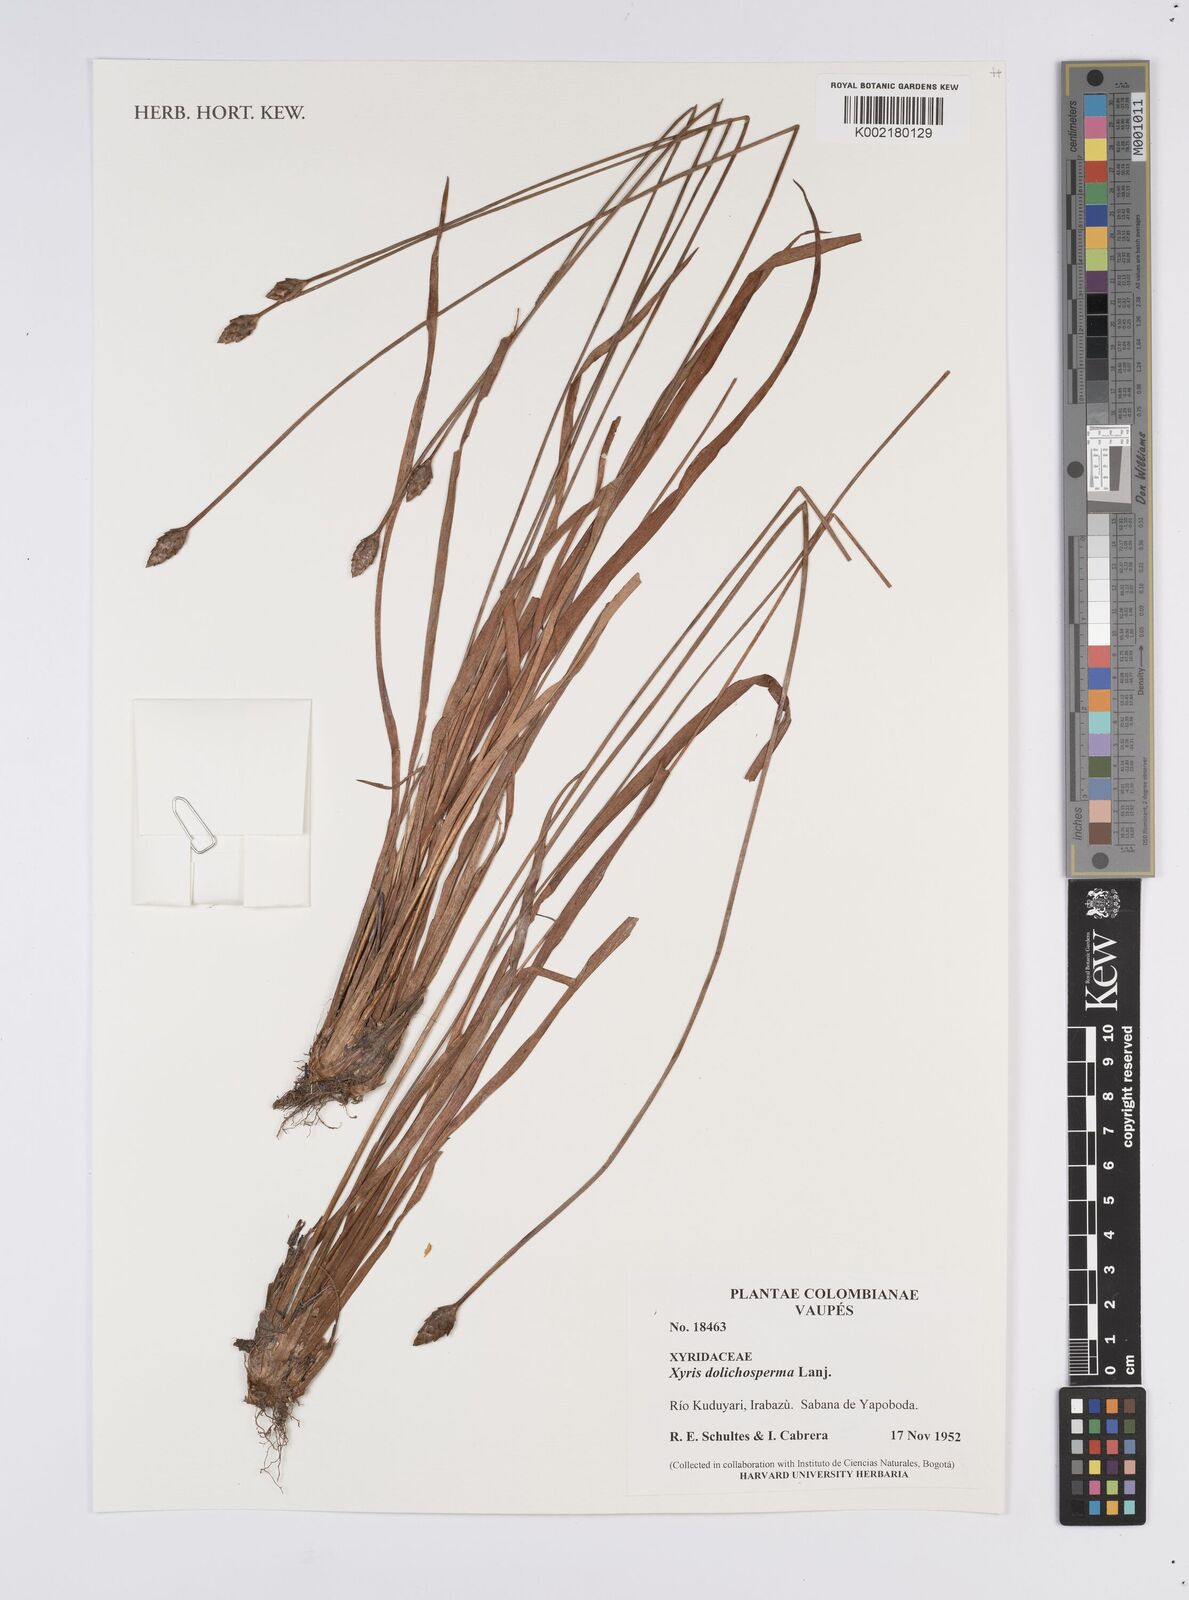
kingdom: Plantae
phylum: Tracheophyta
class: Liliopsida
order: Poales
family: Xyridaceae
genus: Xyris
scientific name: Xyris fallax
